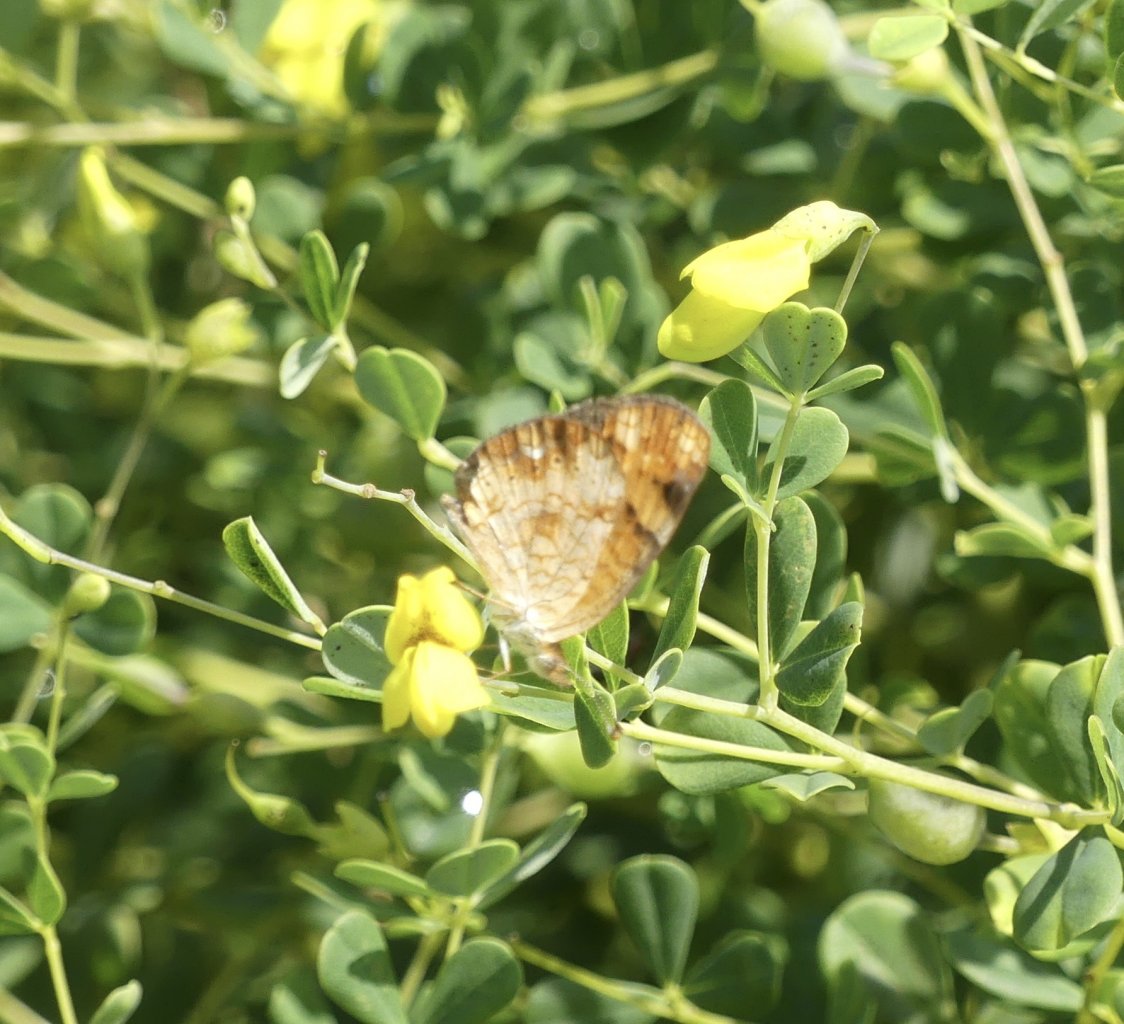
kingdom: Animalia
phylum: Arthropoda
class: Insecta
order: Lepidoptera
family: Nymphalidae
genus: Phyciodes
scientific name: Phyciodes tharos
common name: Pearl Crescent
